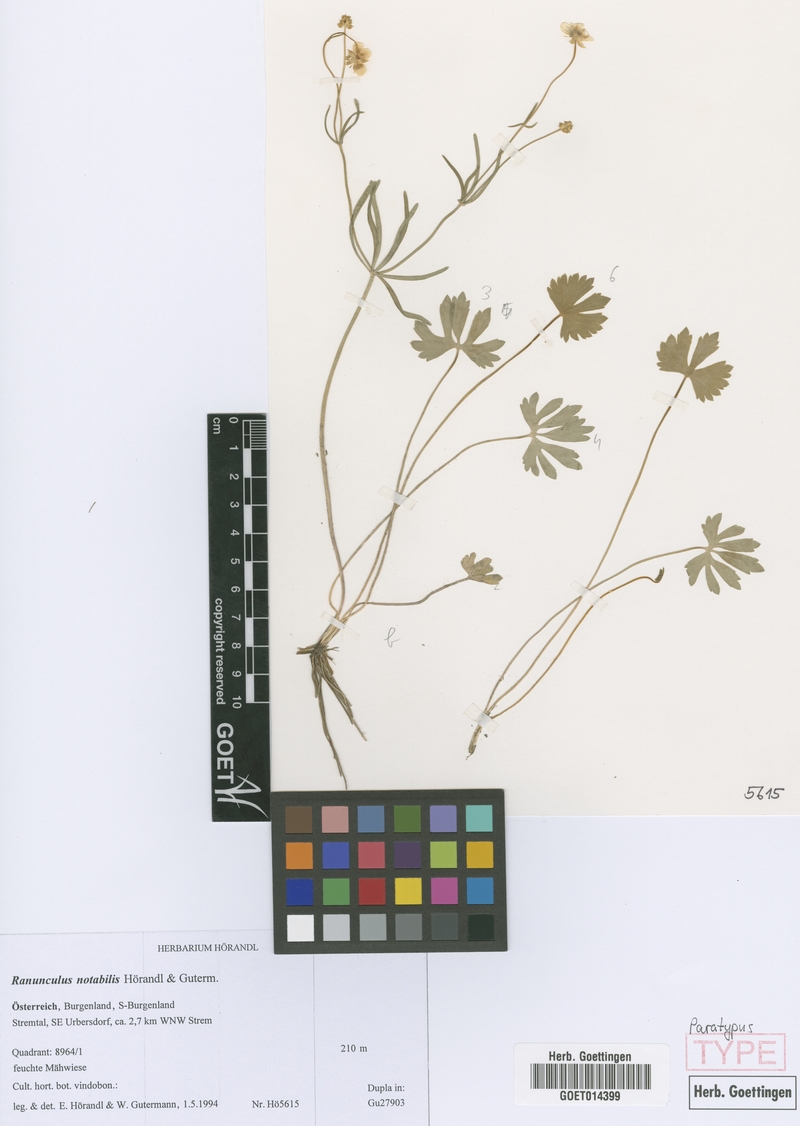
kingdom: Plantae
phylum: Tracheophyta
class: Magnoliopsida
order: Ranunculales
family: Ranunculaceae
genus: Ranunculus
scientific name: Ranunculus notabilis
